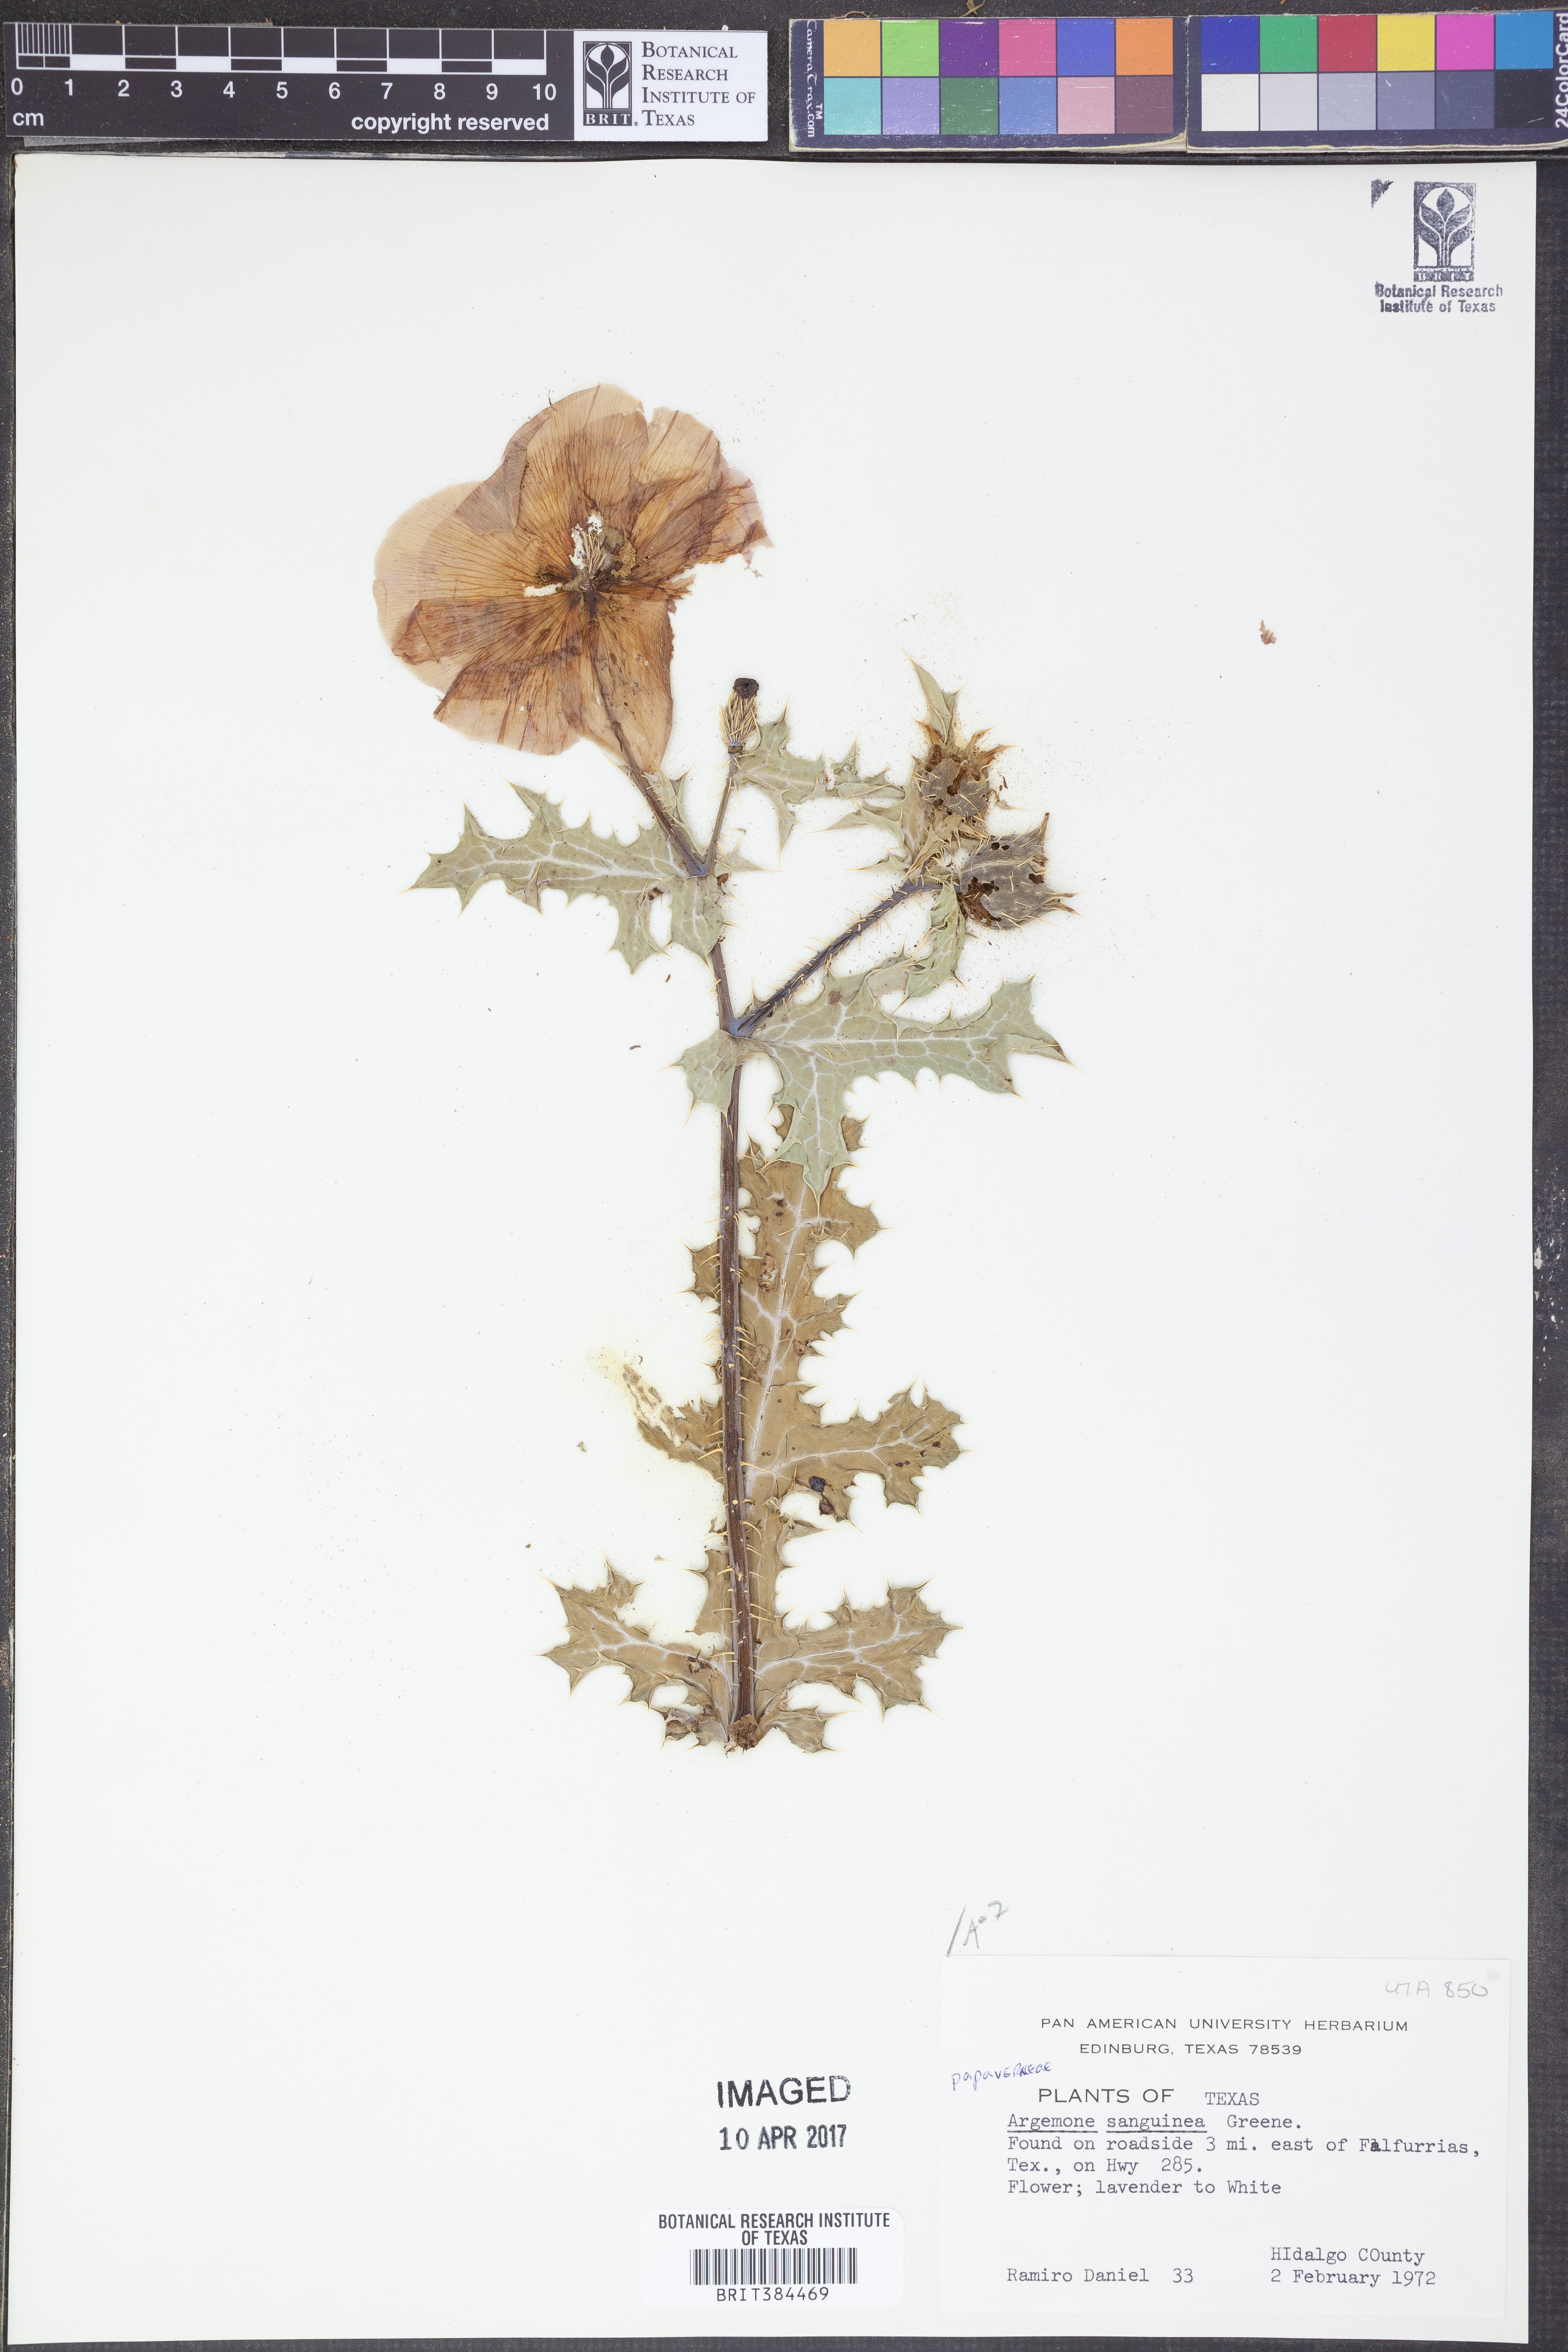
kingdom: Plantae
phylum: Tracheophyta
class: Magnoliopsida
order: Ranunculales
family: Papaveraceae
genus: Argemone
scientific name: Argemone sanguinea
